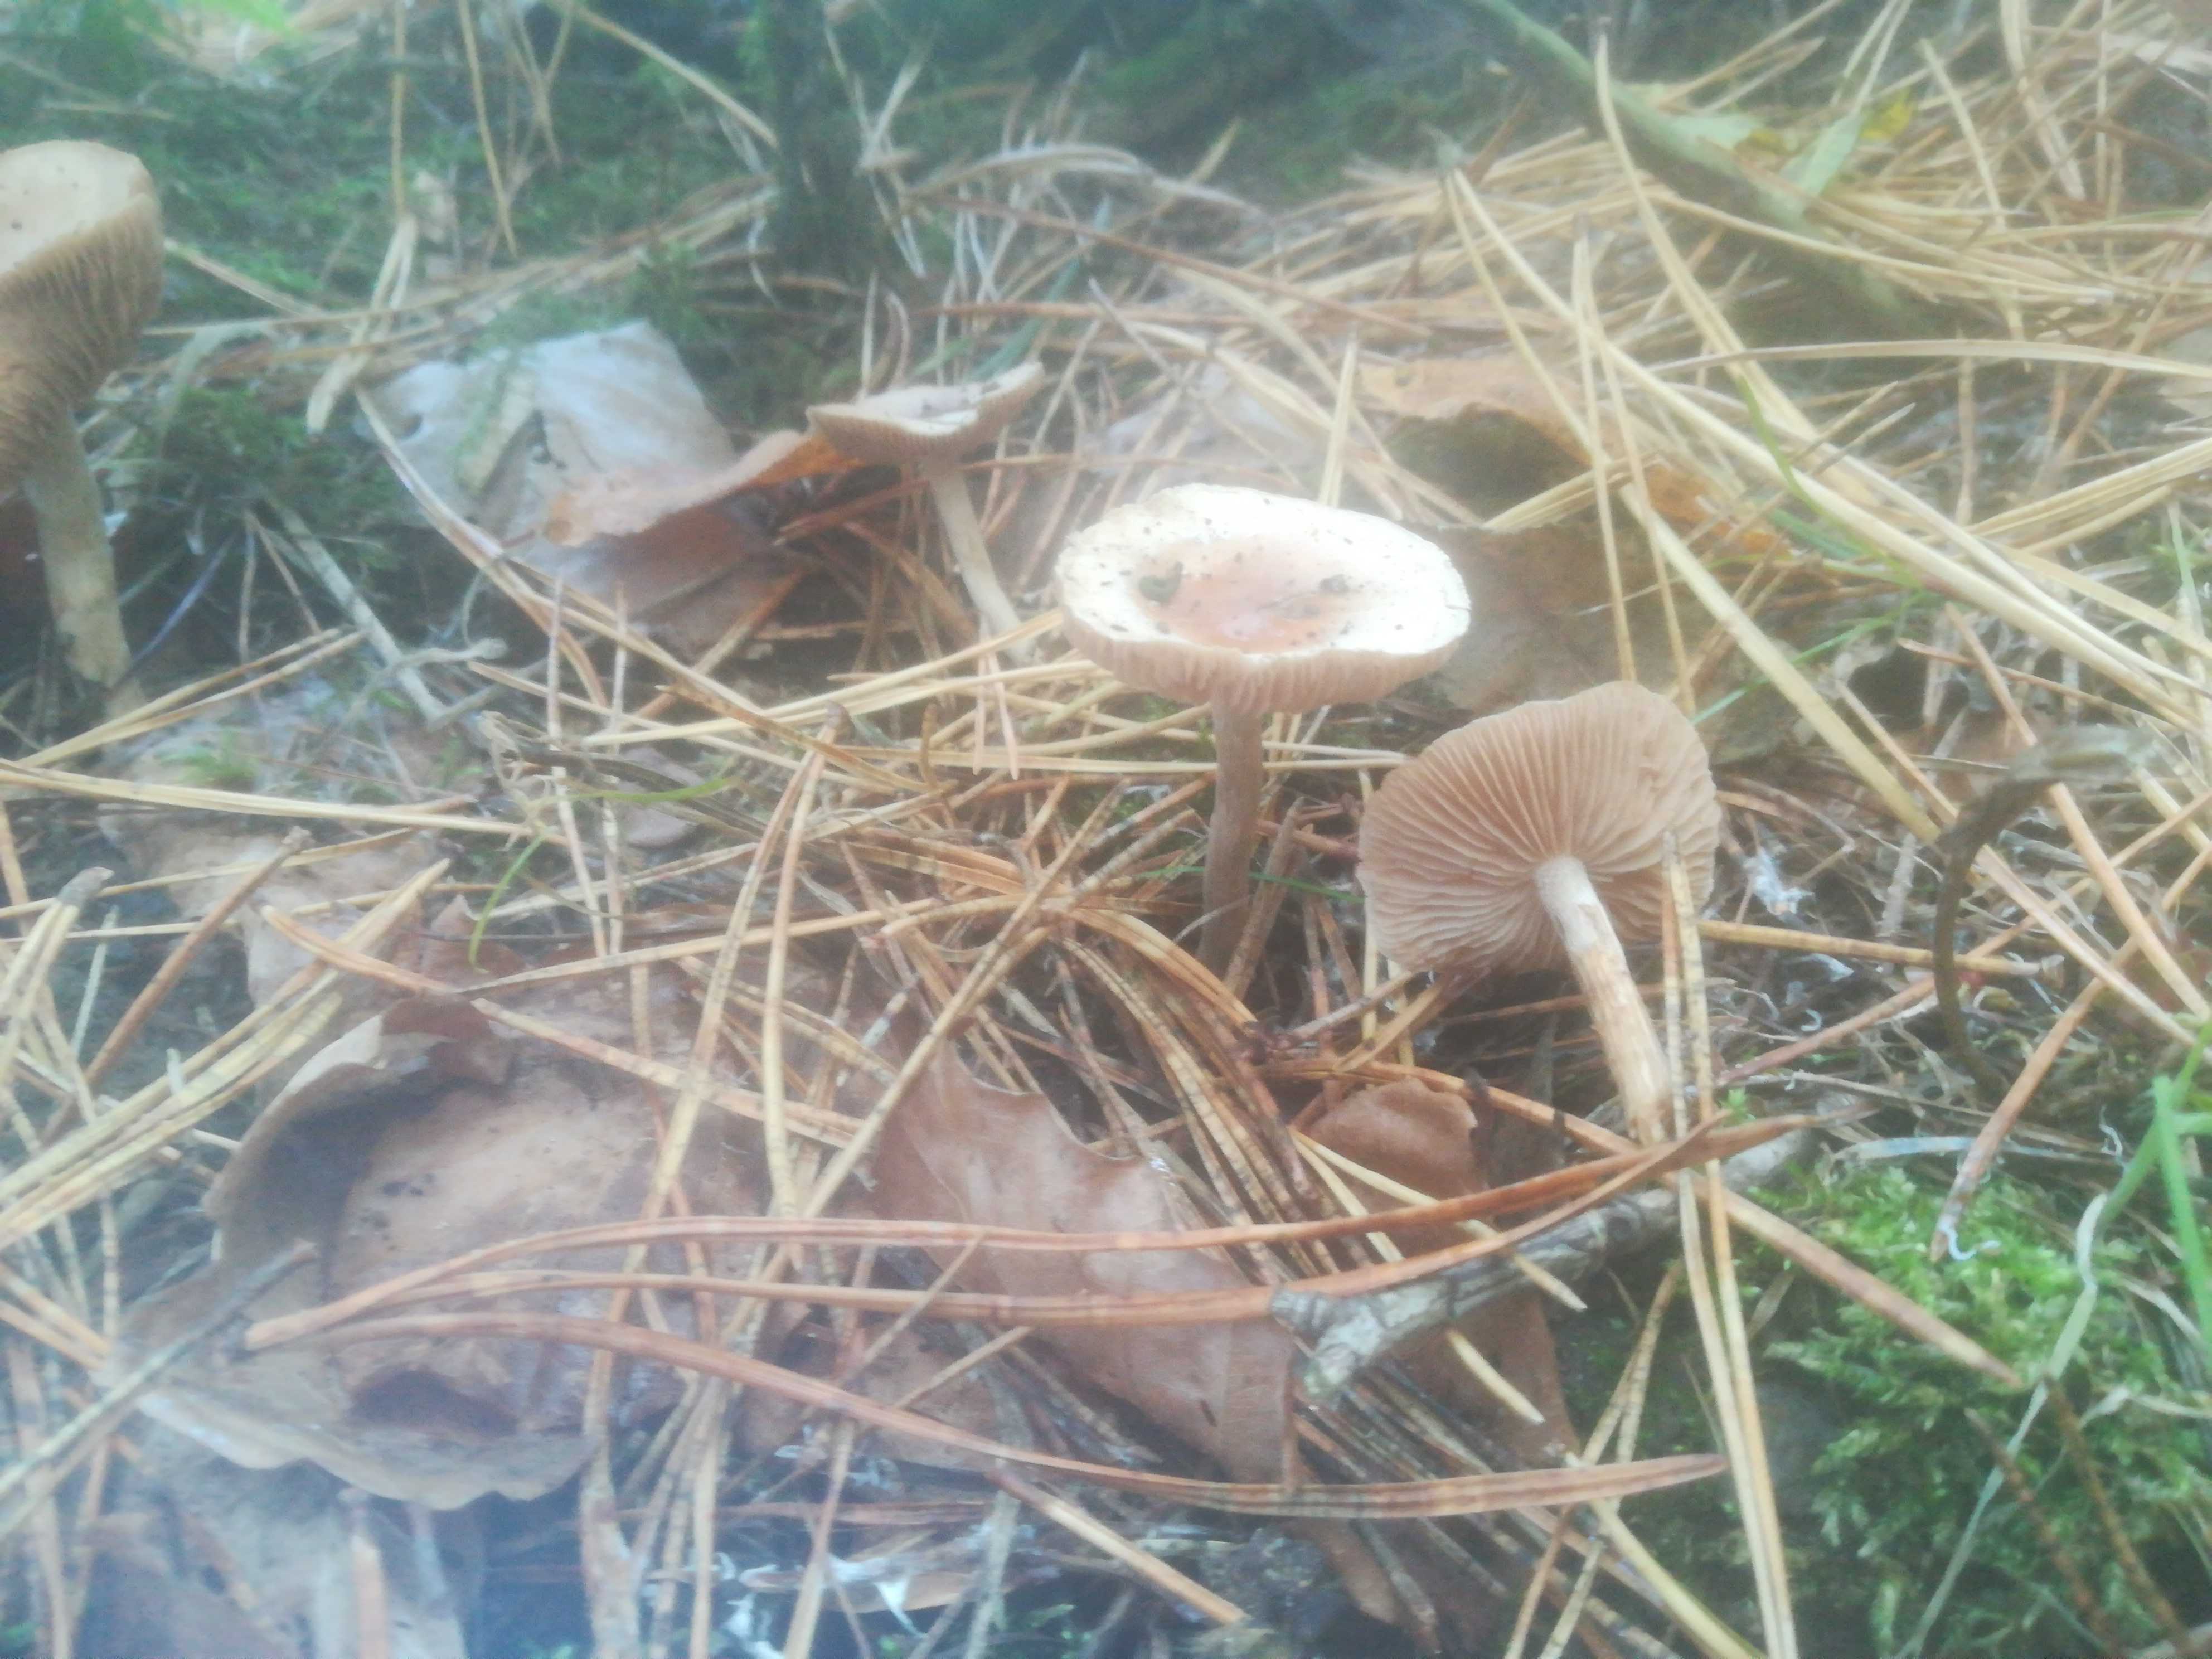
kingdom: Fungi
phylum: Basidiomycota
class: Agaricomycetes
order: Agaricales
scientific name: Agaricales
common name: champignonordenen
